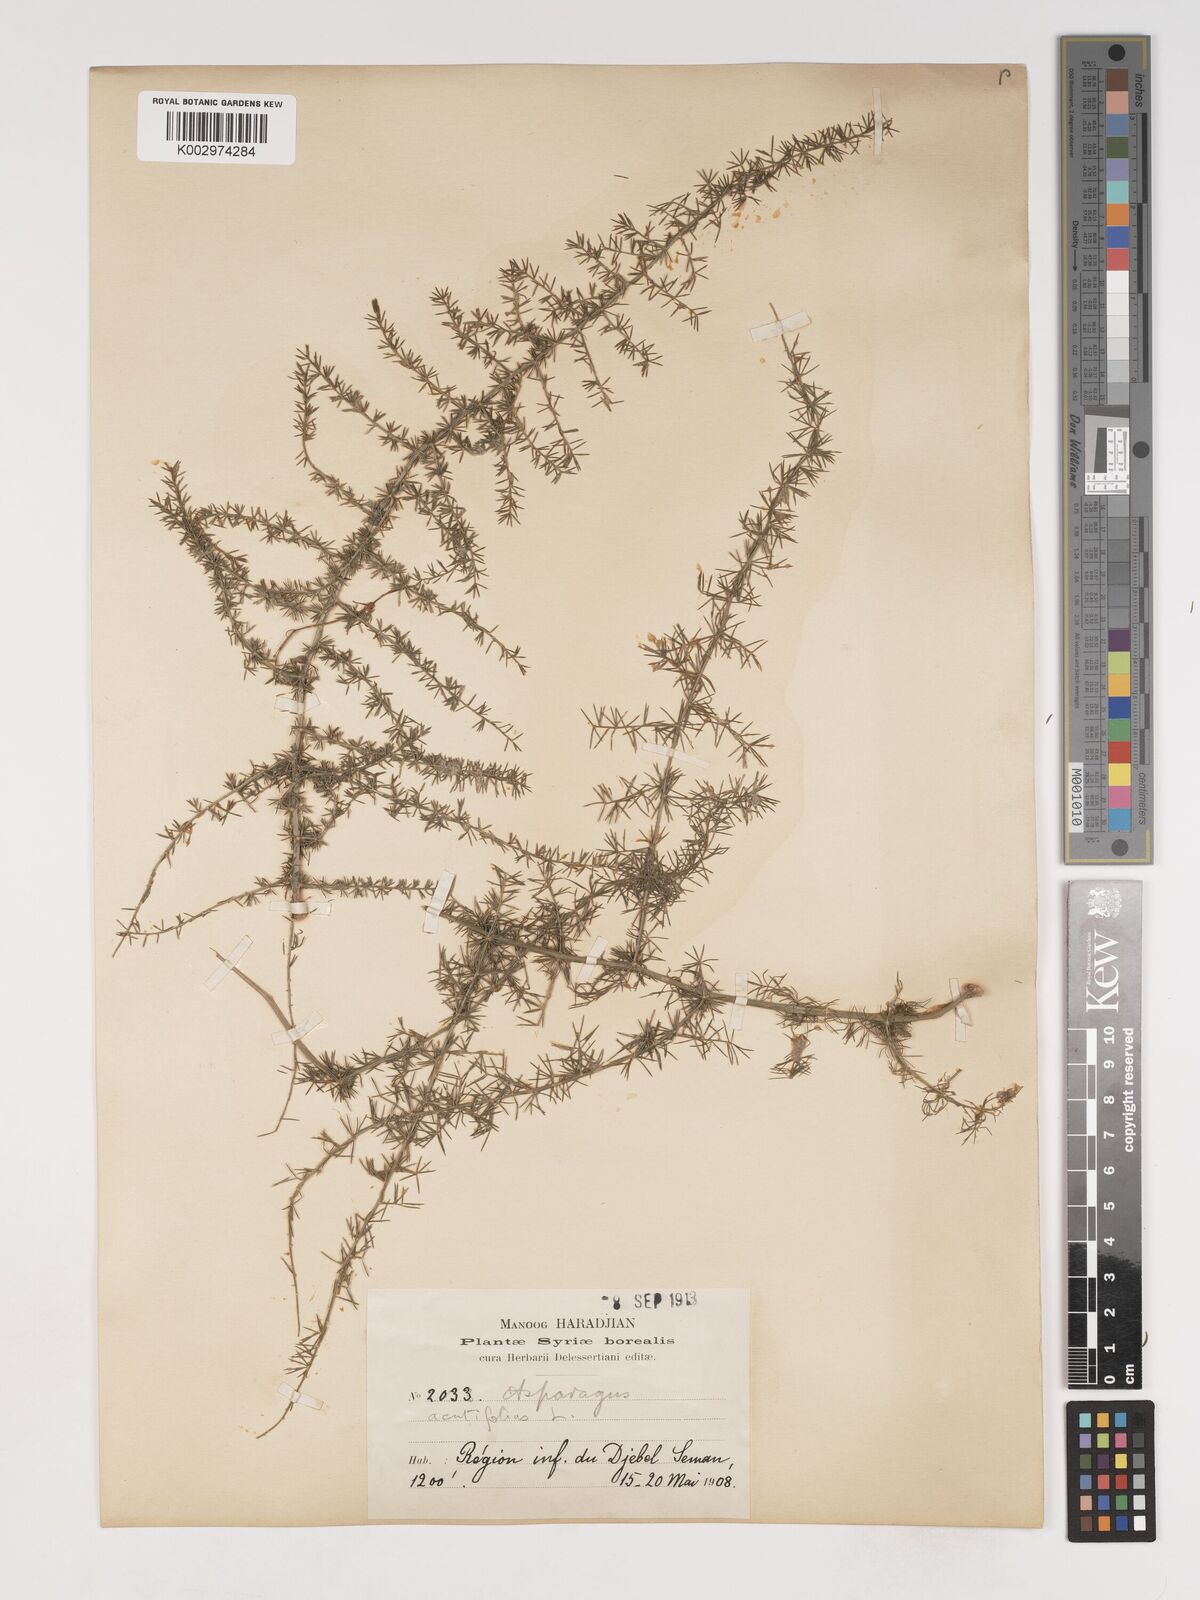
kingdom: Plantae
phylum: Tracheophyta
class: Liliopsida
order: Asparagales
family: Asparagaceae
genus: Asparagus
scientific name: Asparagus acutifolius
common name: Wild asparagus
